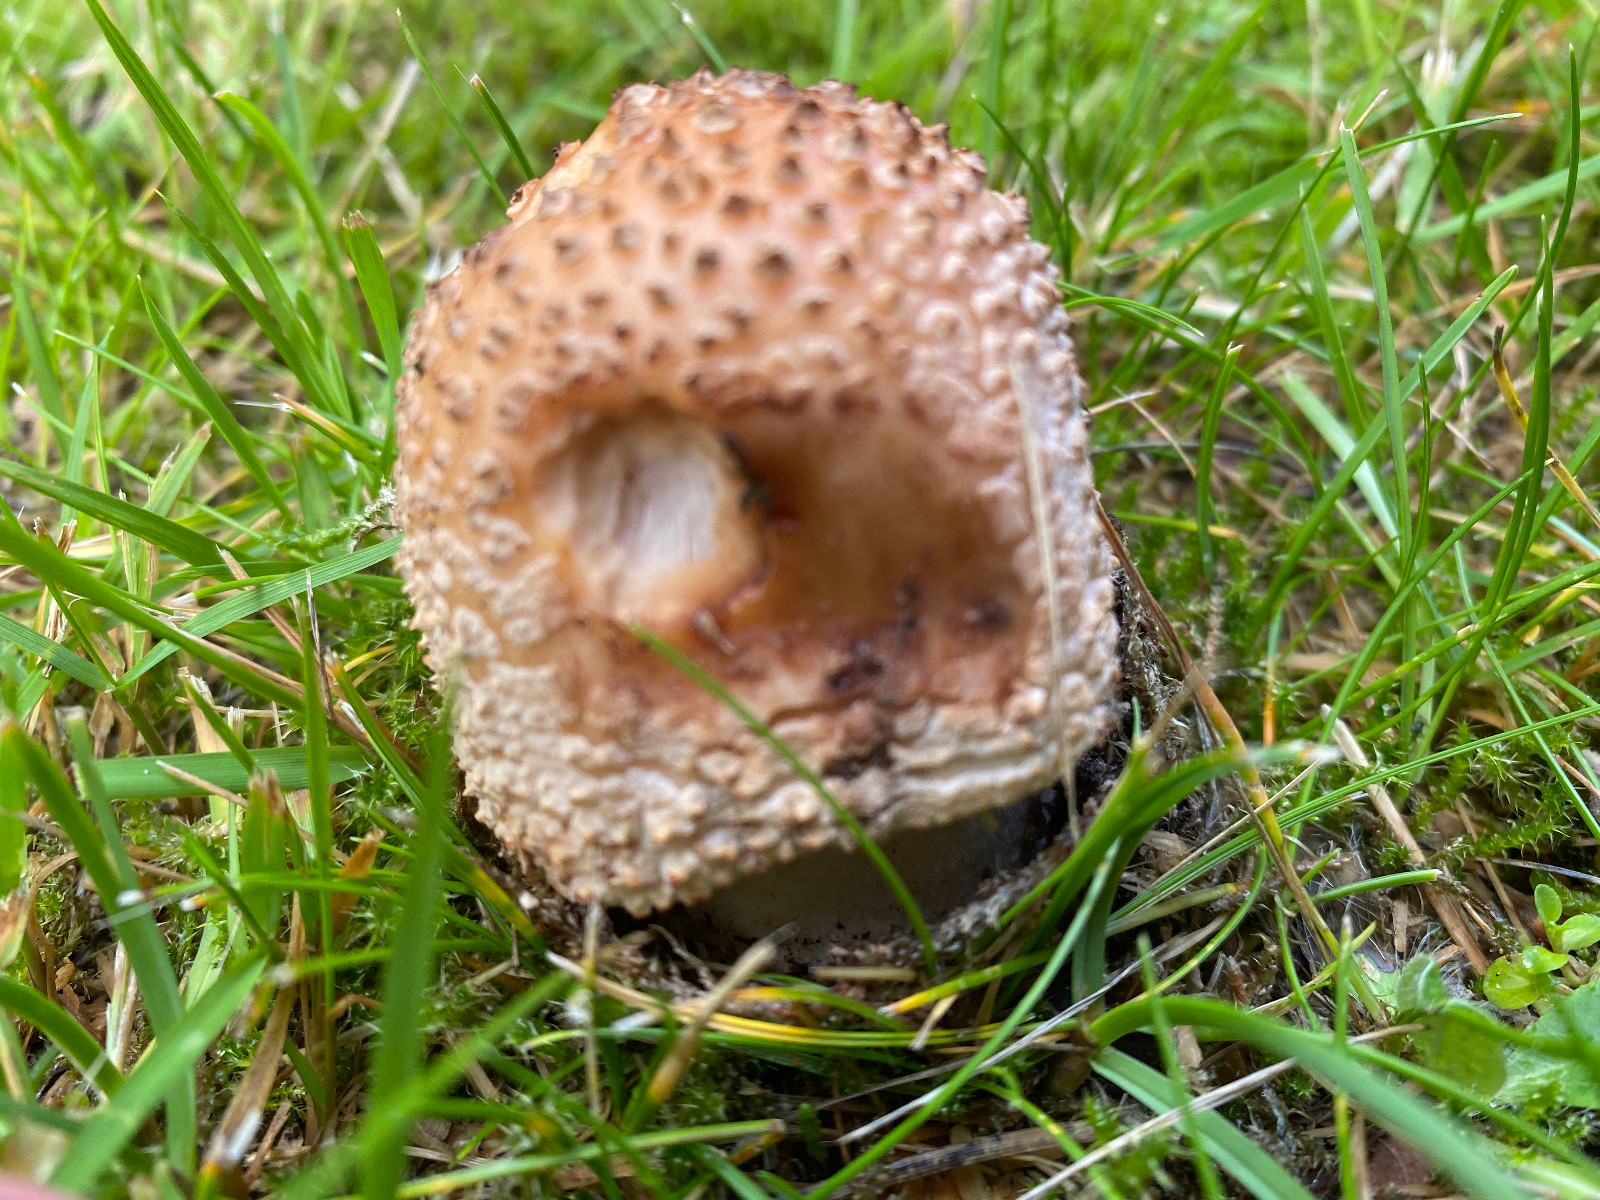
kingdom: Fungi
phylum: Basidiomycota
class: Agaricomycetes
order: Agaricales
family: Amanitaceae
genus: Amanita
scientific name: Amanita rubescens
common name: rødmende fluesvamp
